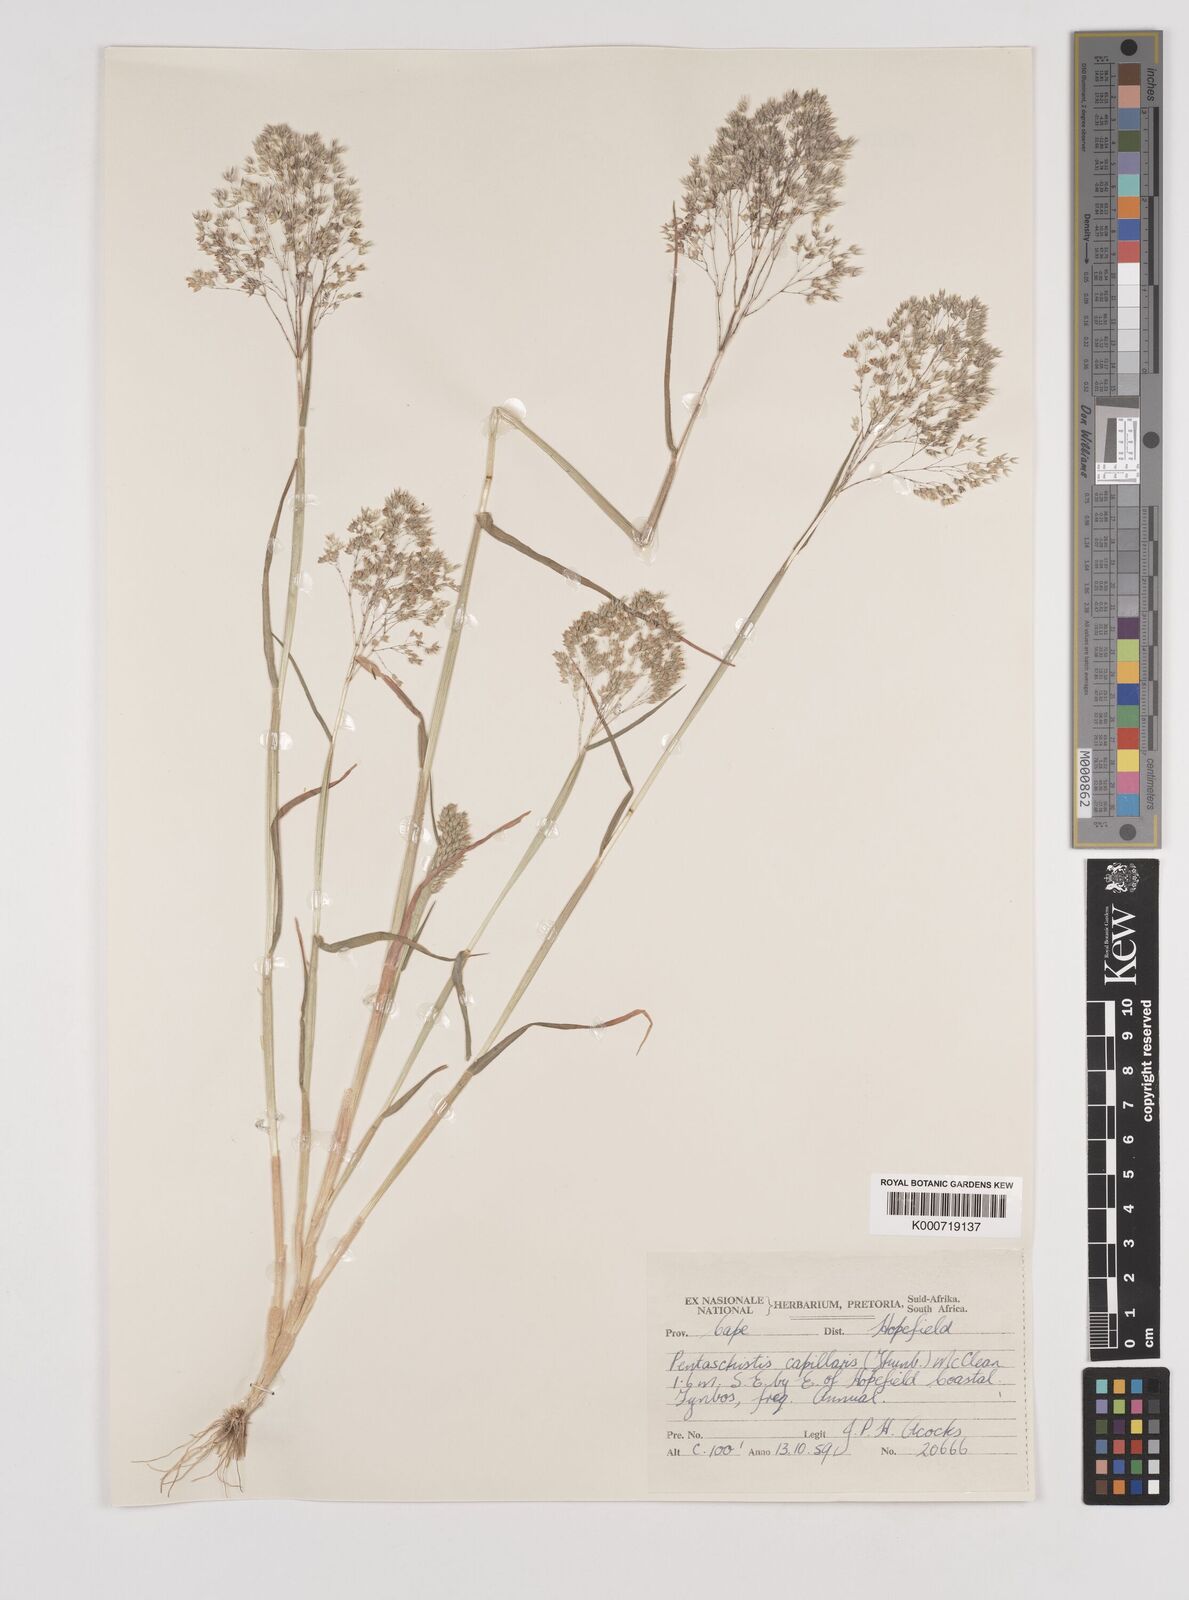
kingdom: Plantae
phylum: Tracheophyta
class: Liliopsida
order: Poales
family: Poaceae
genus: Pentameris
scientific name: Pentameris capillaris
